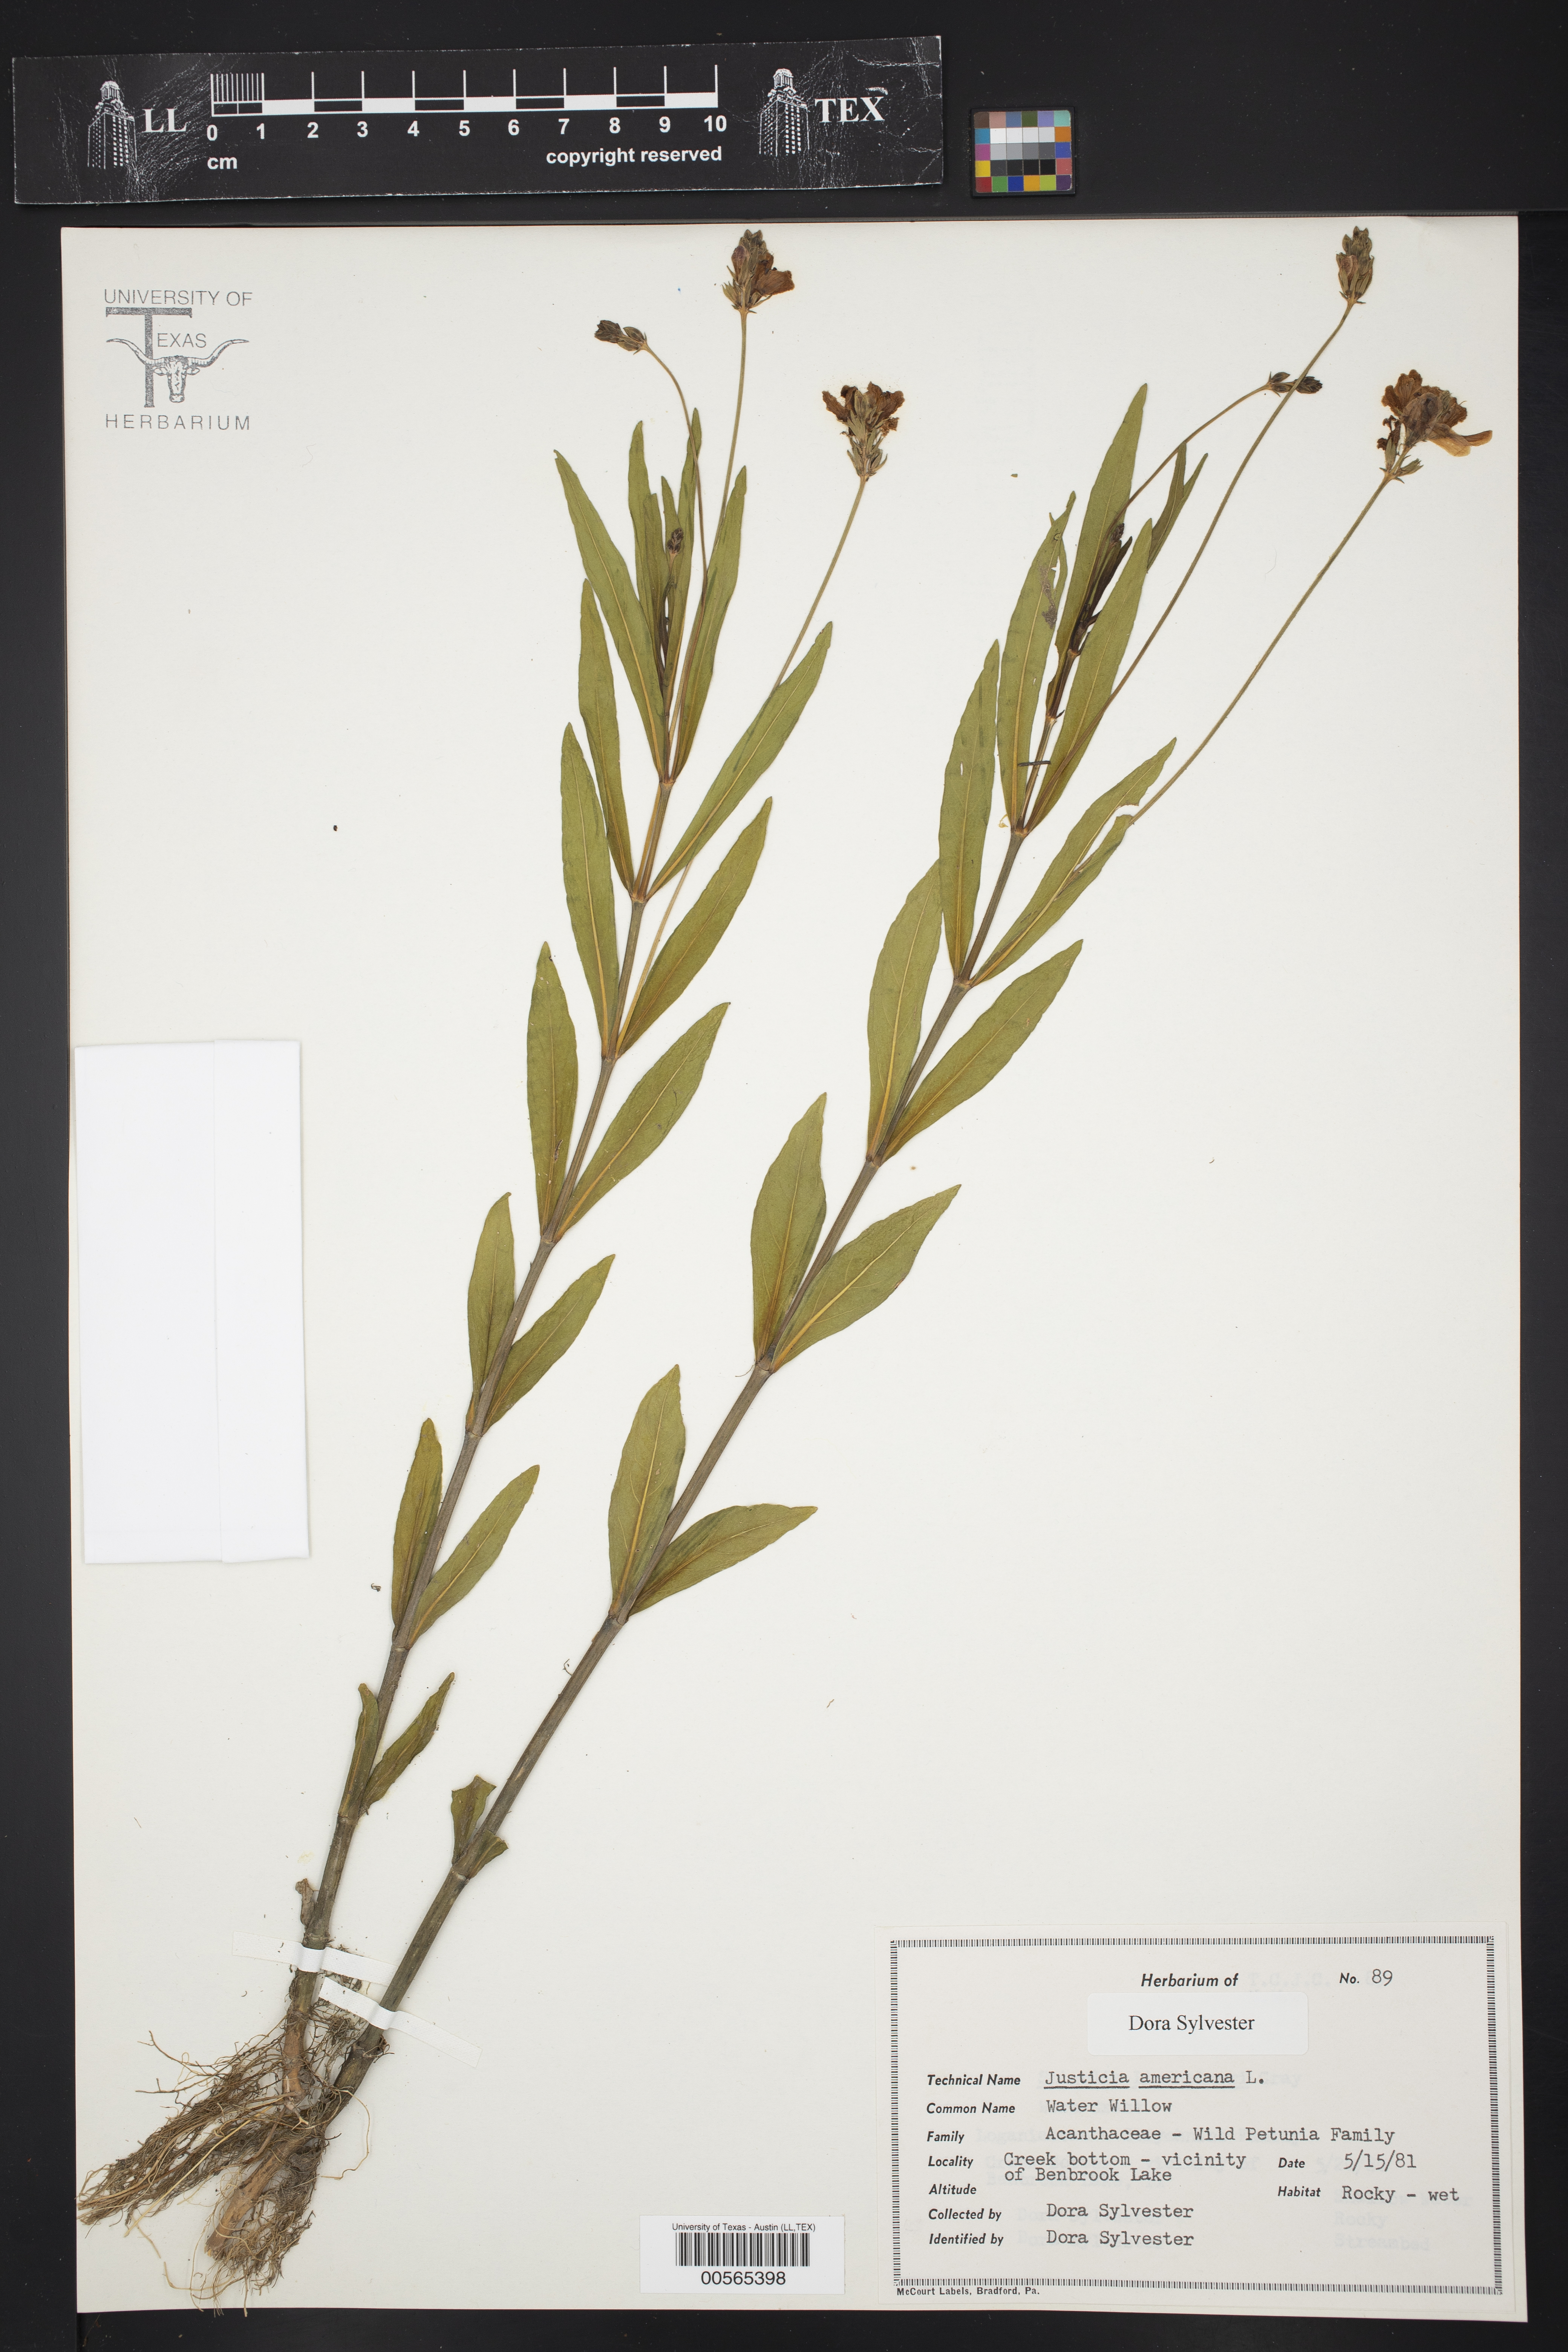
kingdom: Plantae
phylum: Tracheophyta
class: Magnoliopsida
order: Lamiales
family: Acanthaceae
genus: Dianthera
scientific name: Dianthera americana
